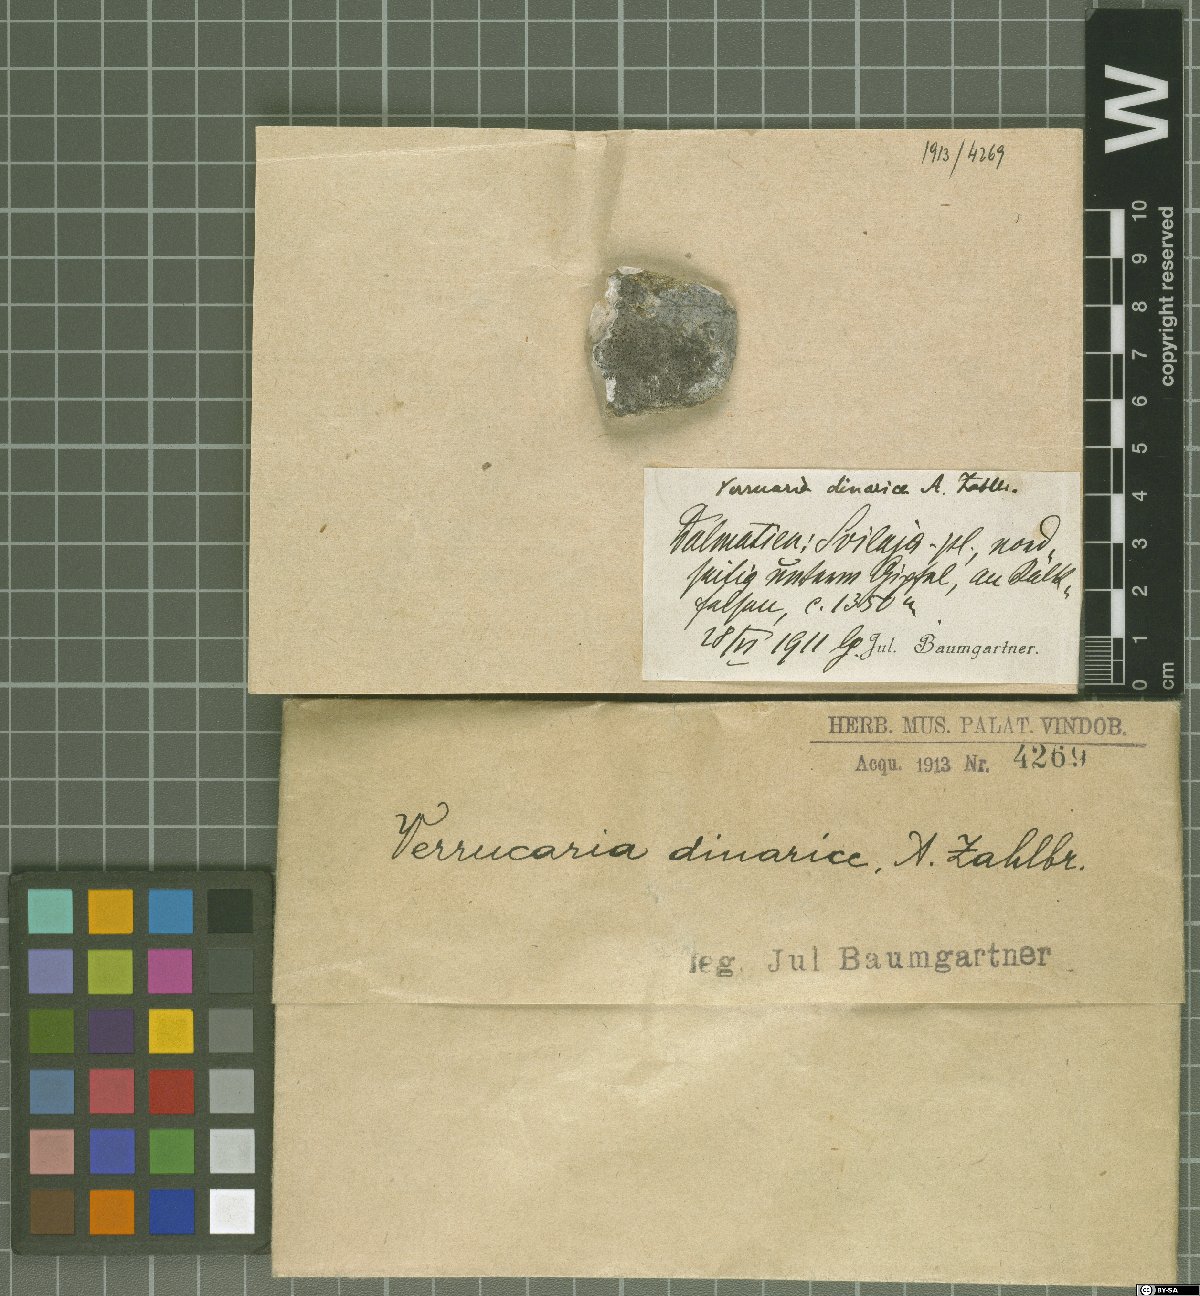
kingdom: Fungi
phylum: Ascomycota
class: Eurotiomycetes
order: Verrucariales
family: Verrucariaceae
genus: Verrucaria
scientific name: Verrucaria
